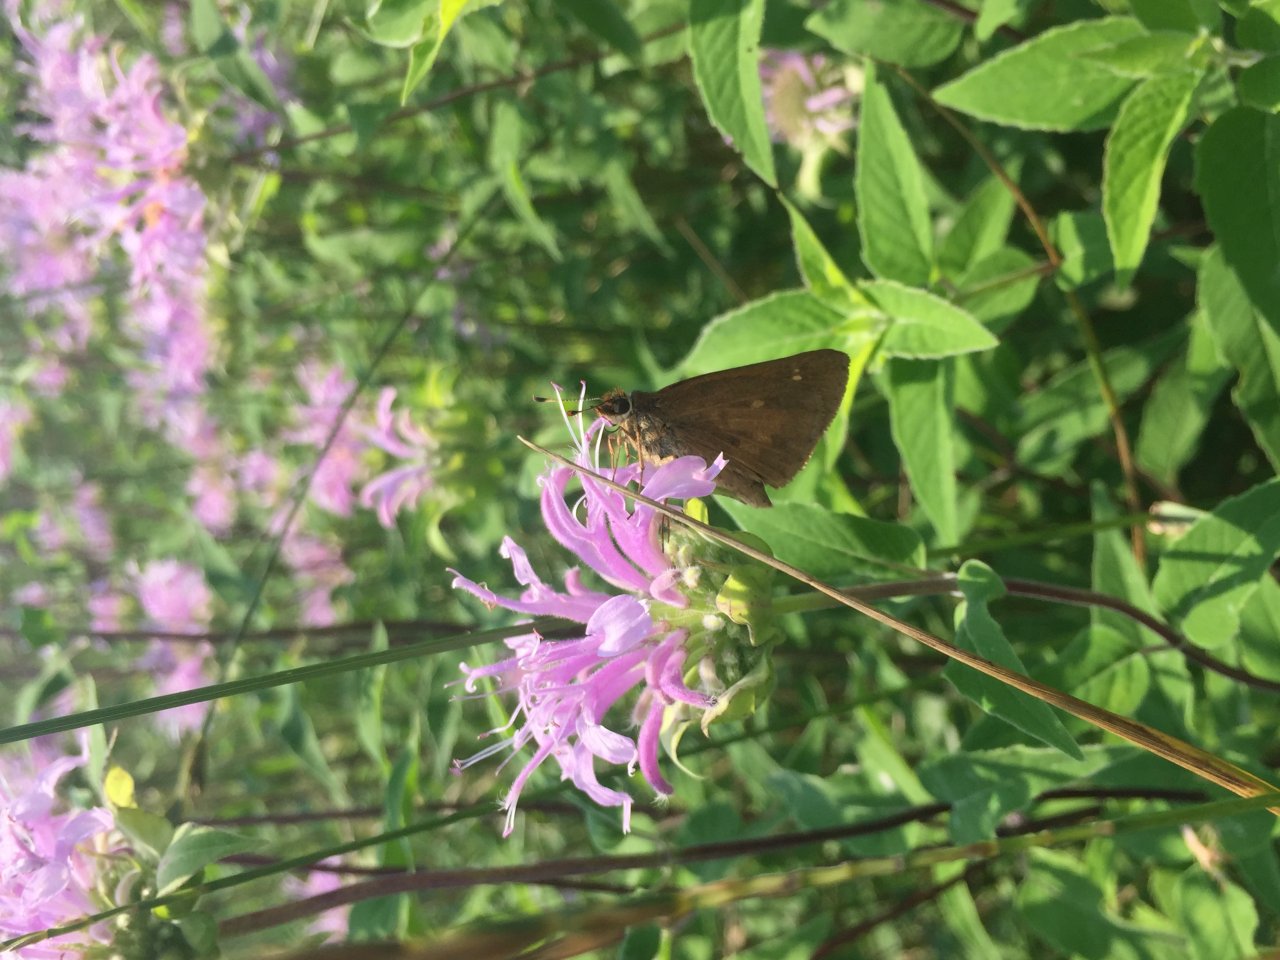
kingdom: Animalia
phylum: Arthropoda
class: Insecta
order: Lepidoptera
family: Hesperiidae
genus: Poanes
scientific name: Poanes viator
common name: Broad-winged Skipper
